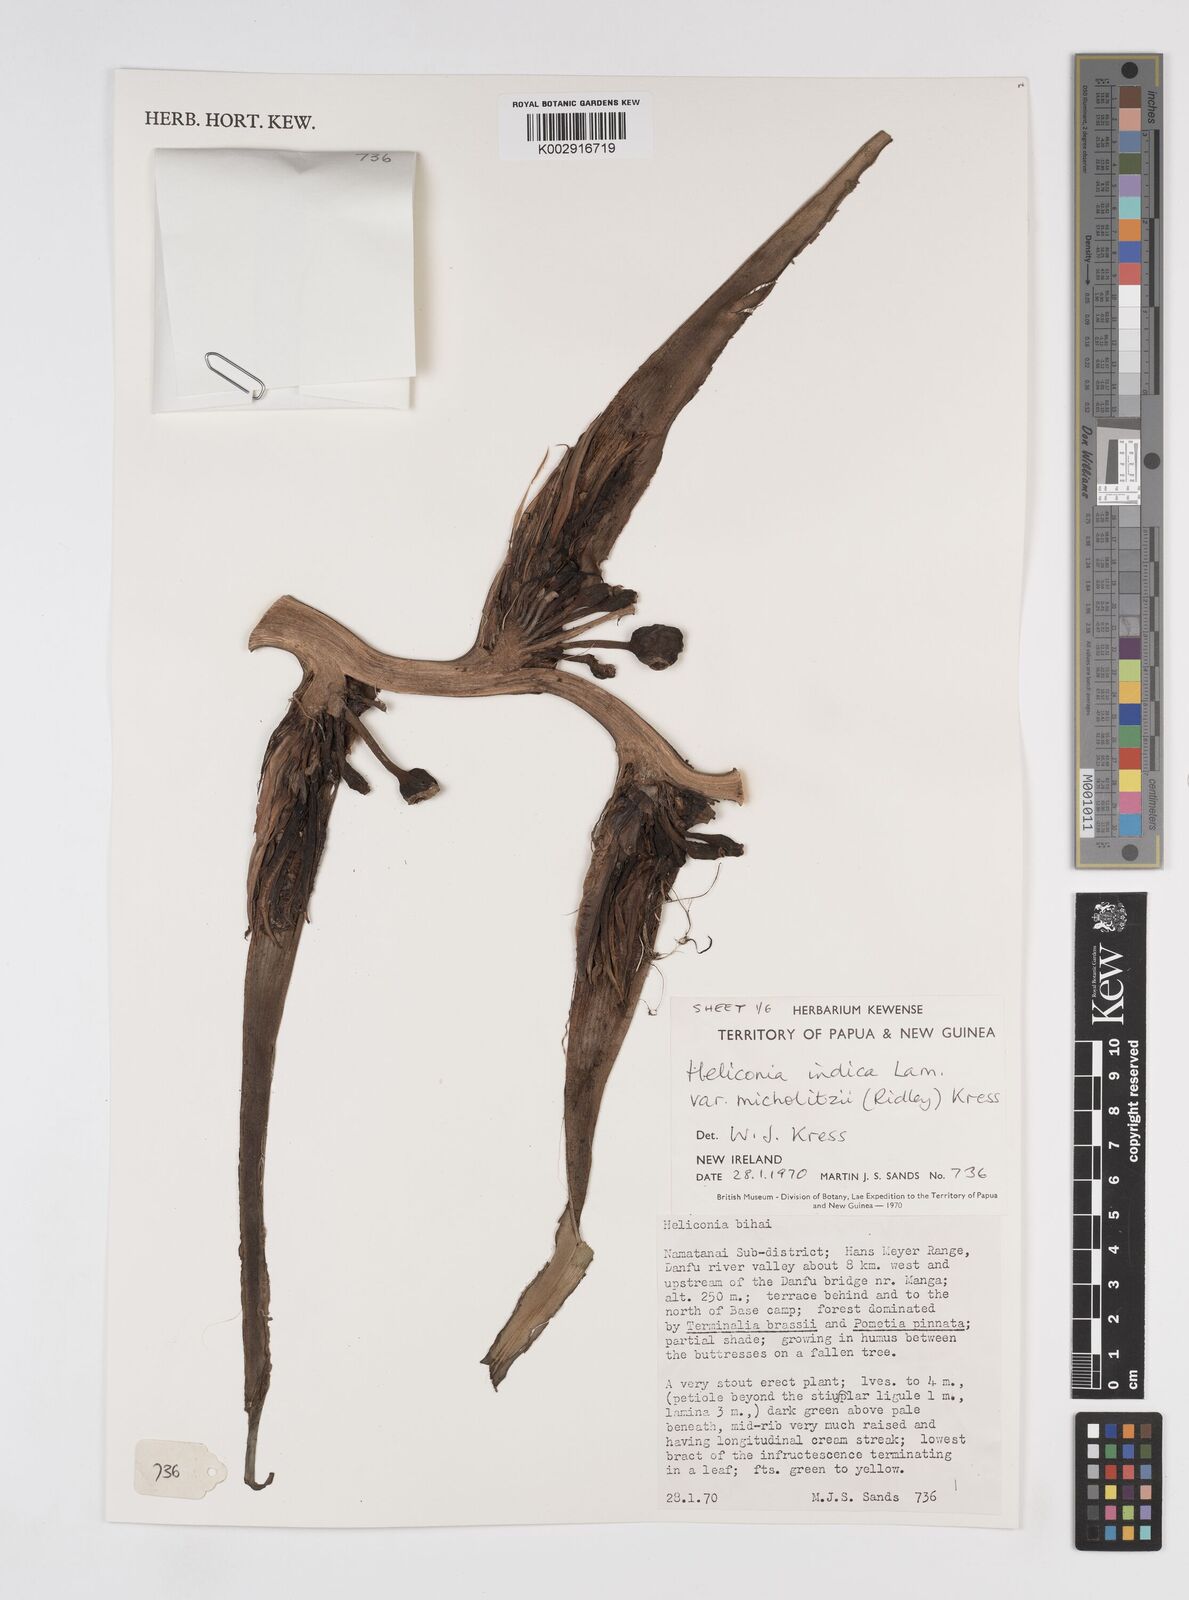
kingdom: Plantae
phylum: Tracheophyta
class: Liliopsida
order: Zingiberales
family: Heliconiaceae
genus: Heliconia
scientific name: Heliconia indica
